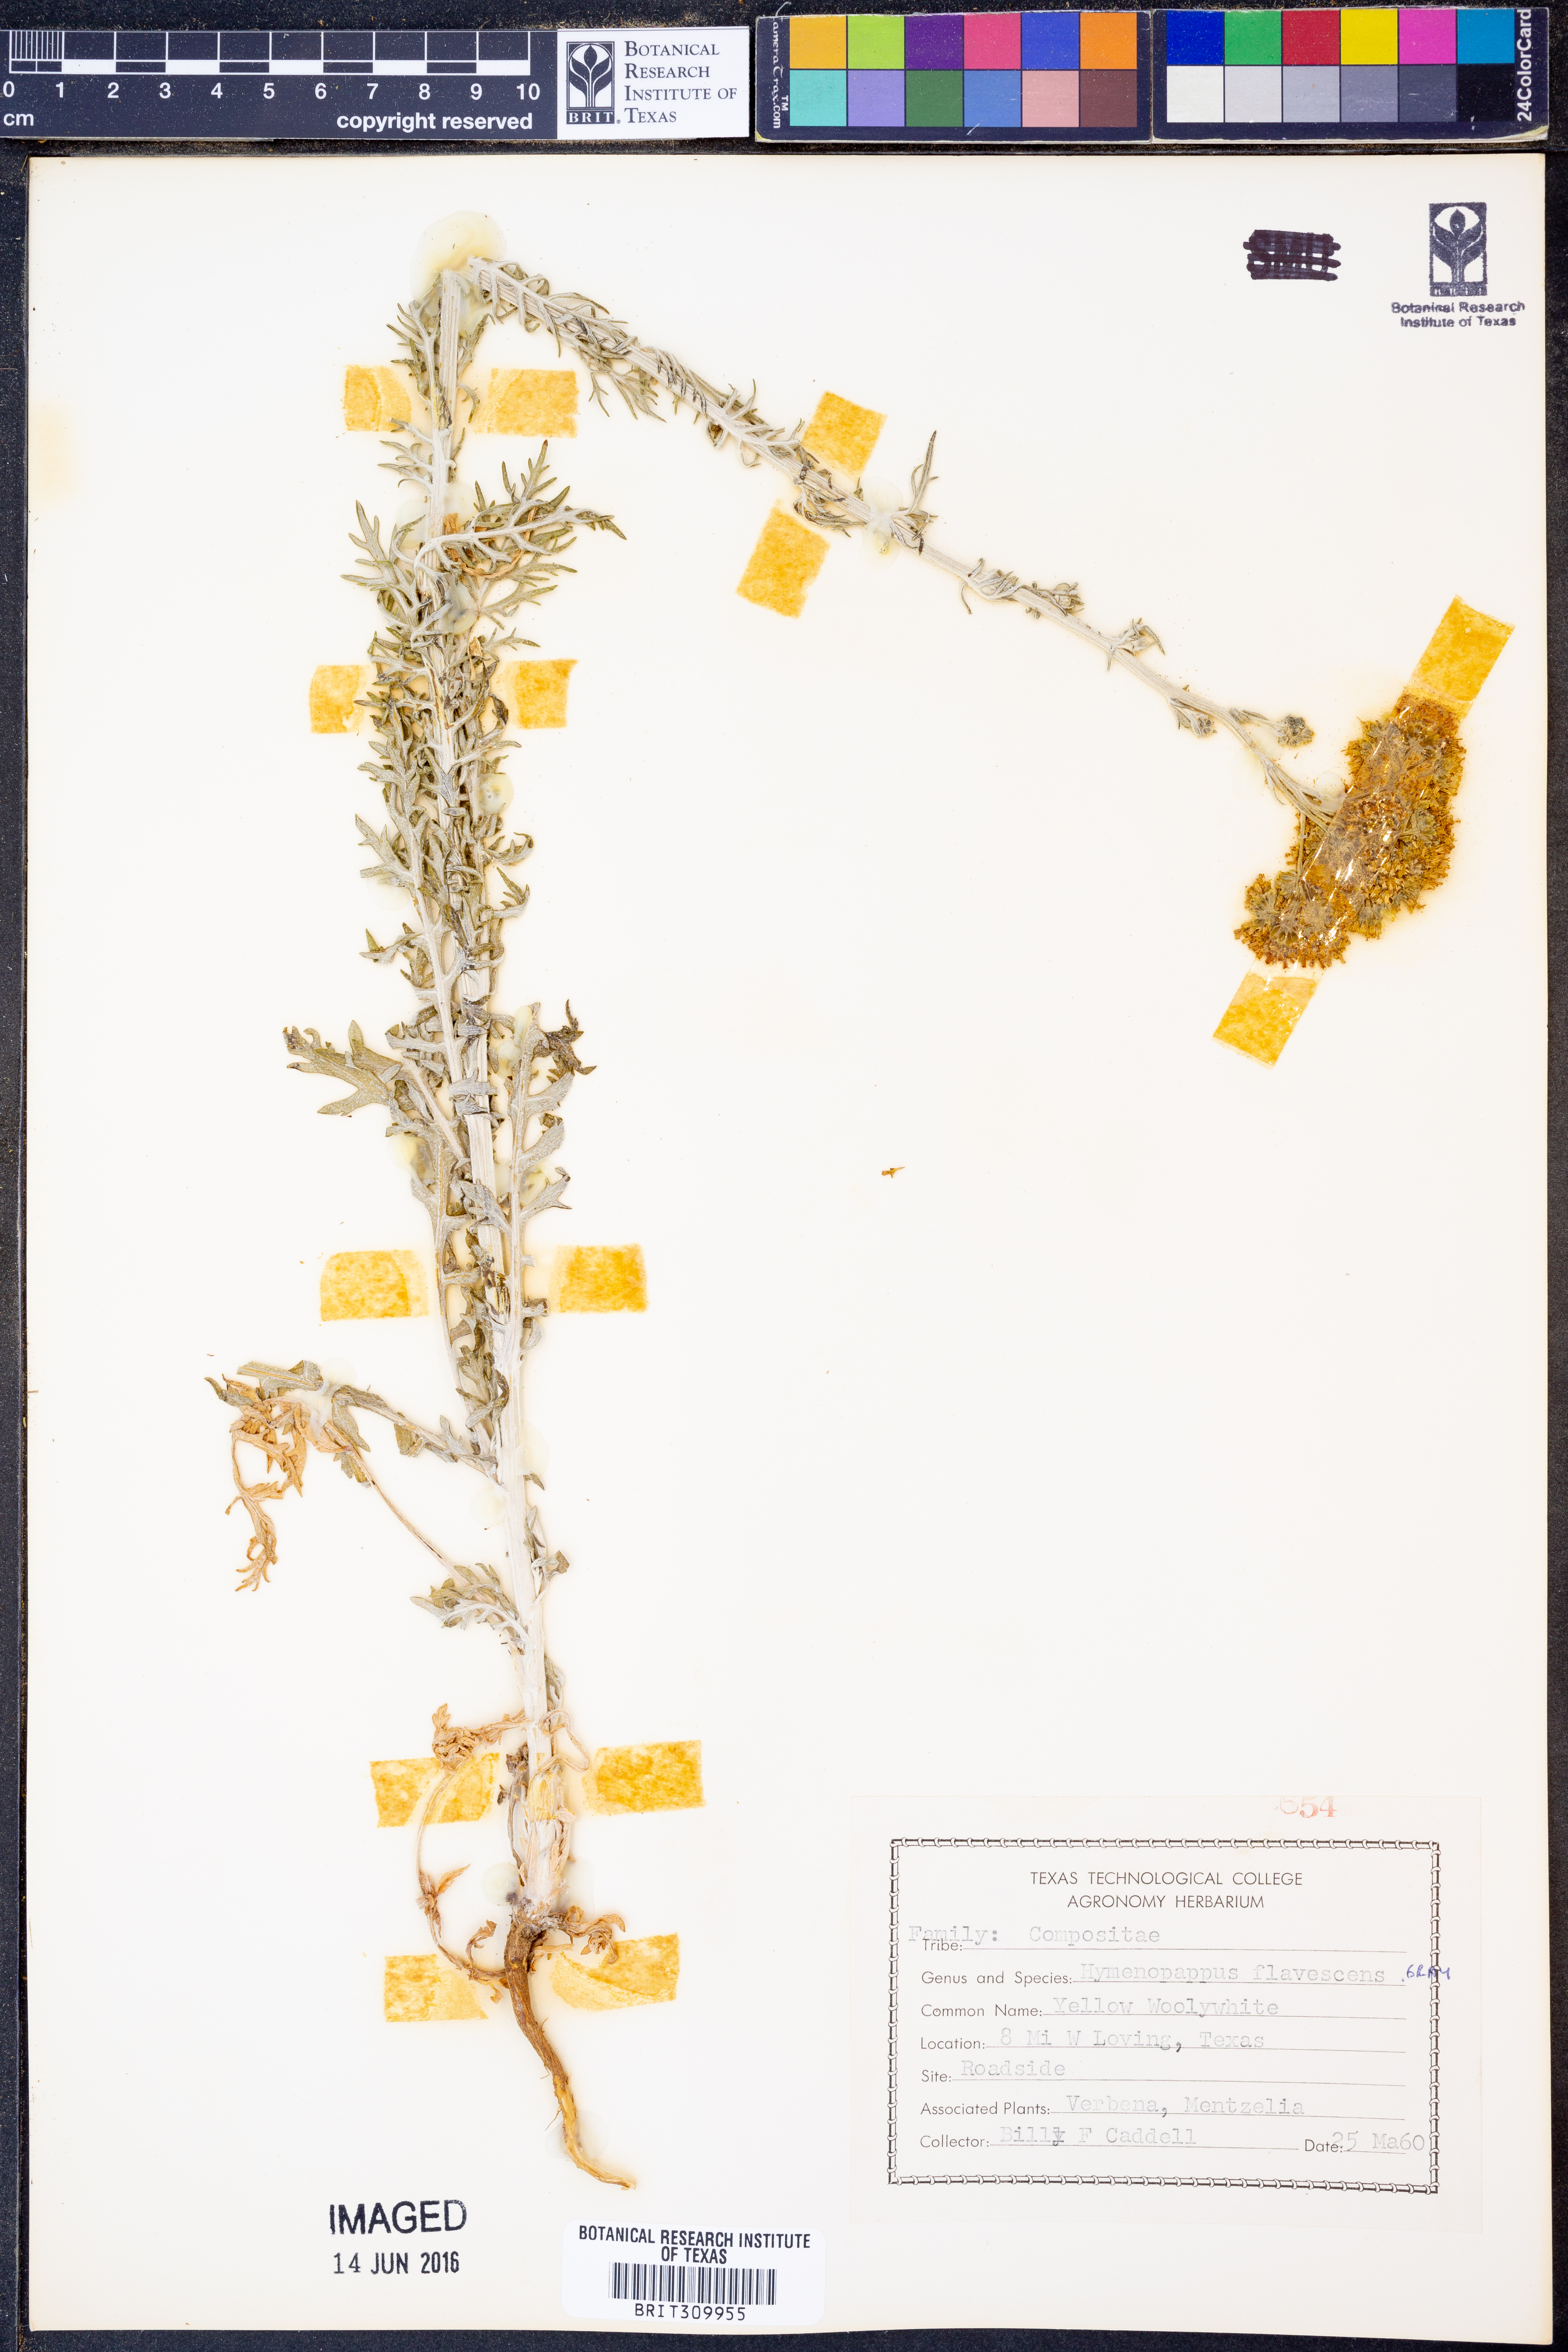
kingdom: Plantae
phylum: Tracheophyta
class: Magnoliopsida
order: Asterales
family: Asteraceae
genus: Hymenopappus
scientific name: Hymenopappus flavescens
